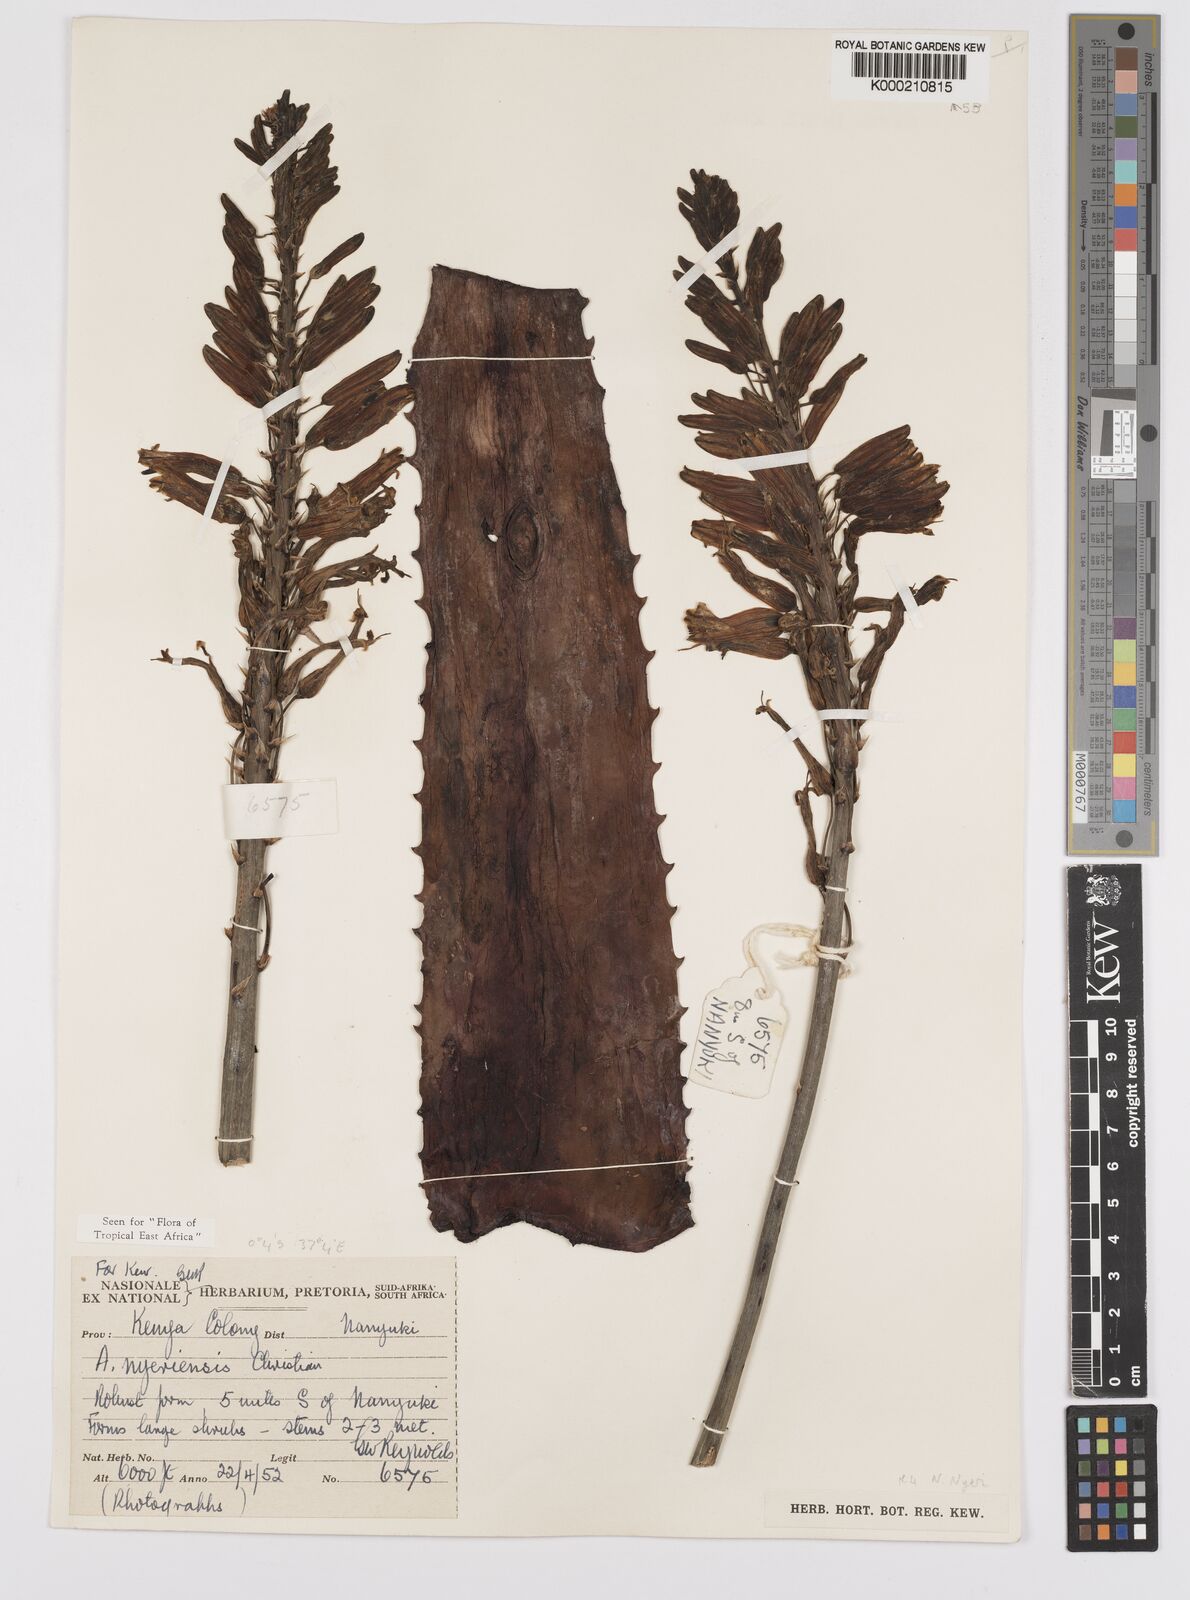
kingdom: Plantae
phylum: Tracheophyta
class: Liliopsida
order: Asparagales
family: Asphodelaceae
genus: Aloe
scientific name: Aloe nyeriensis
